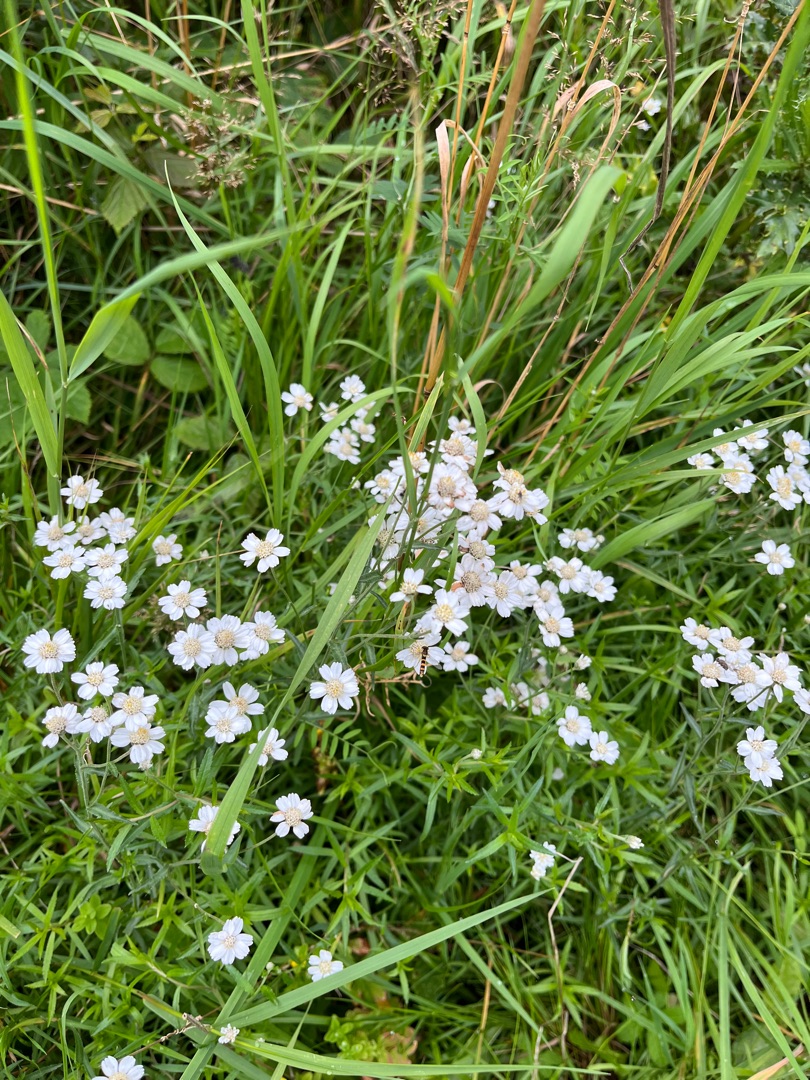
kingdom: Plantae
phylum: Tracheophyta
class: Magnoliopsida
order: Asterales
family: Asteraceae
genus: Achillea
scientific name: Achillea ptarmica
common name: Nyse-røllike
